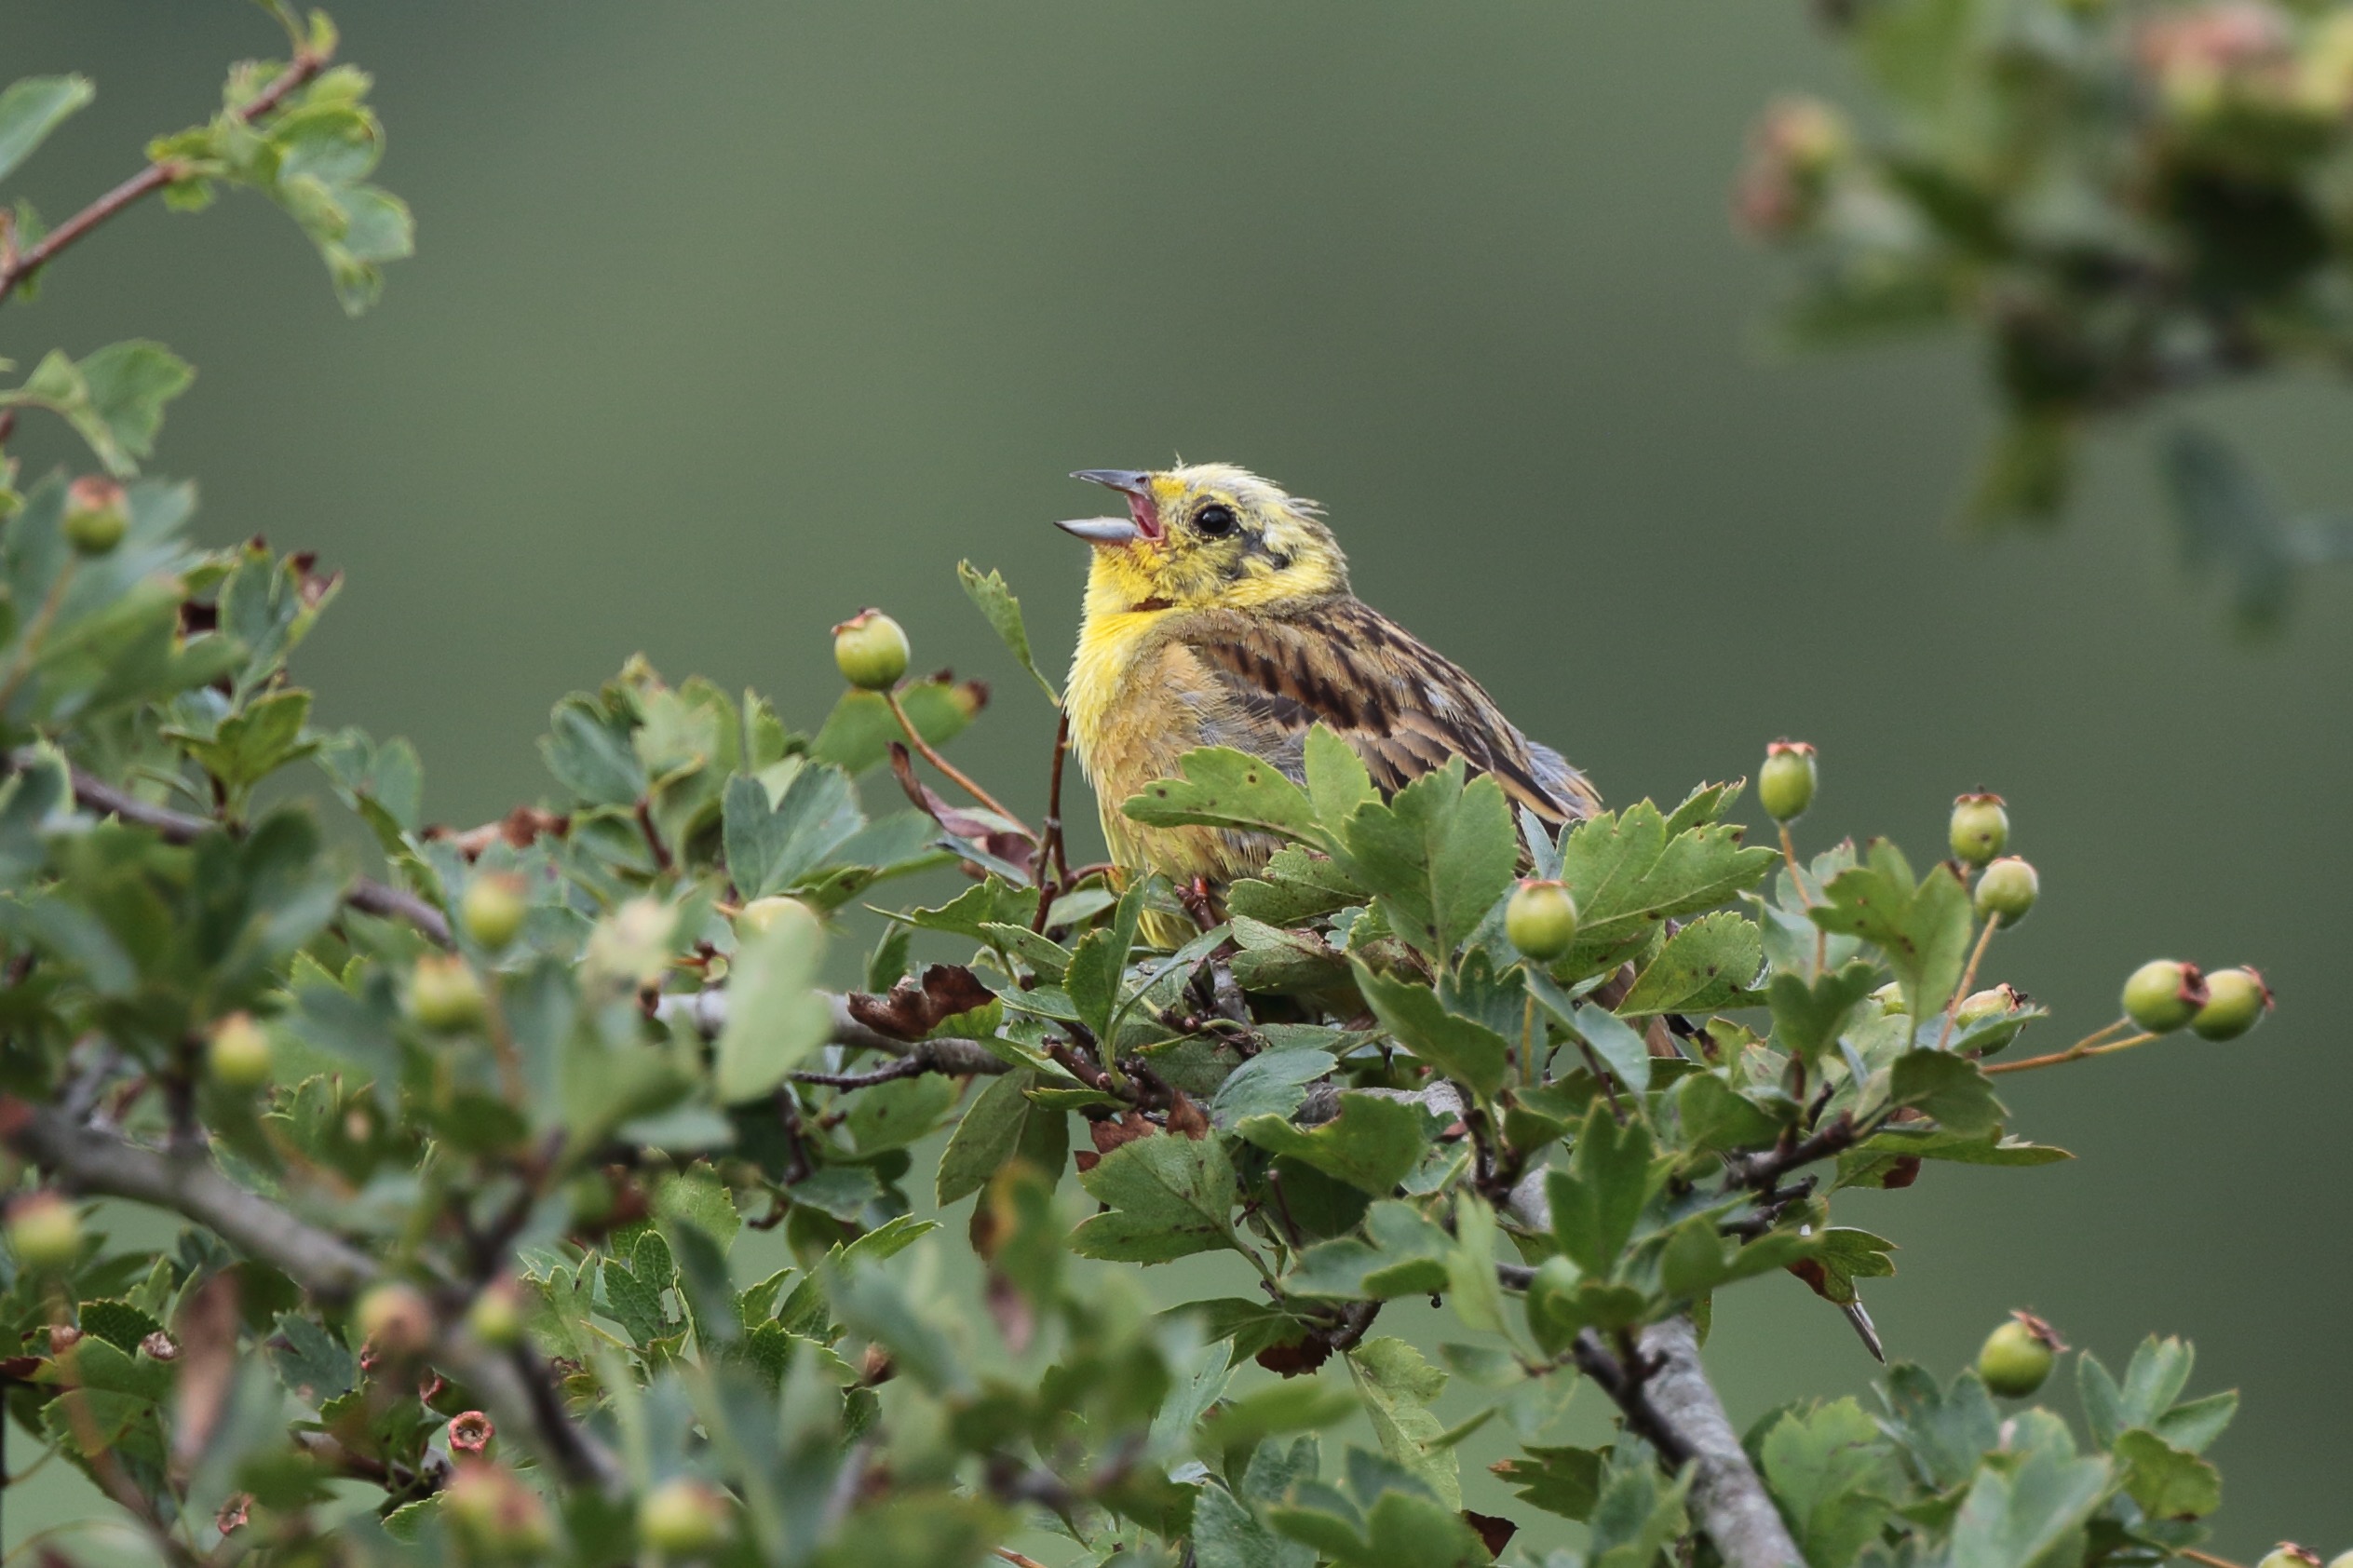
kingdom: Animalia
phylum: Chordata
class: Aves
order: Passeriformes
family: Emberizidae
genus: Emberiza
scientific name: Emberiza citrinella
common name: Gulspurv
